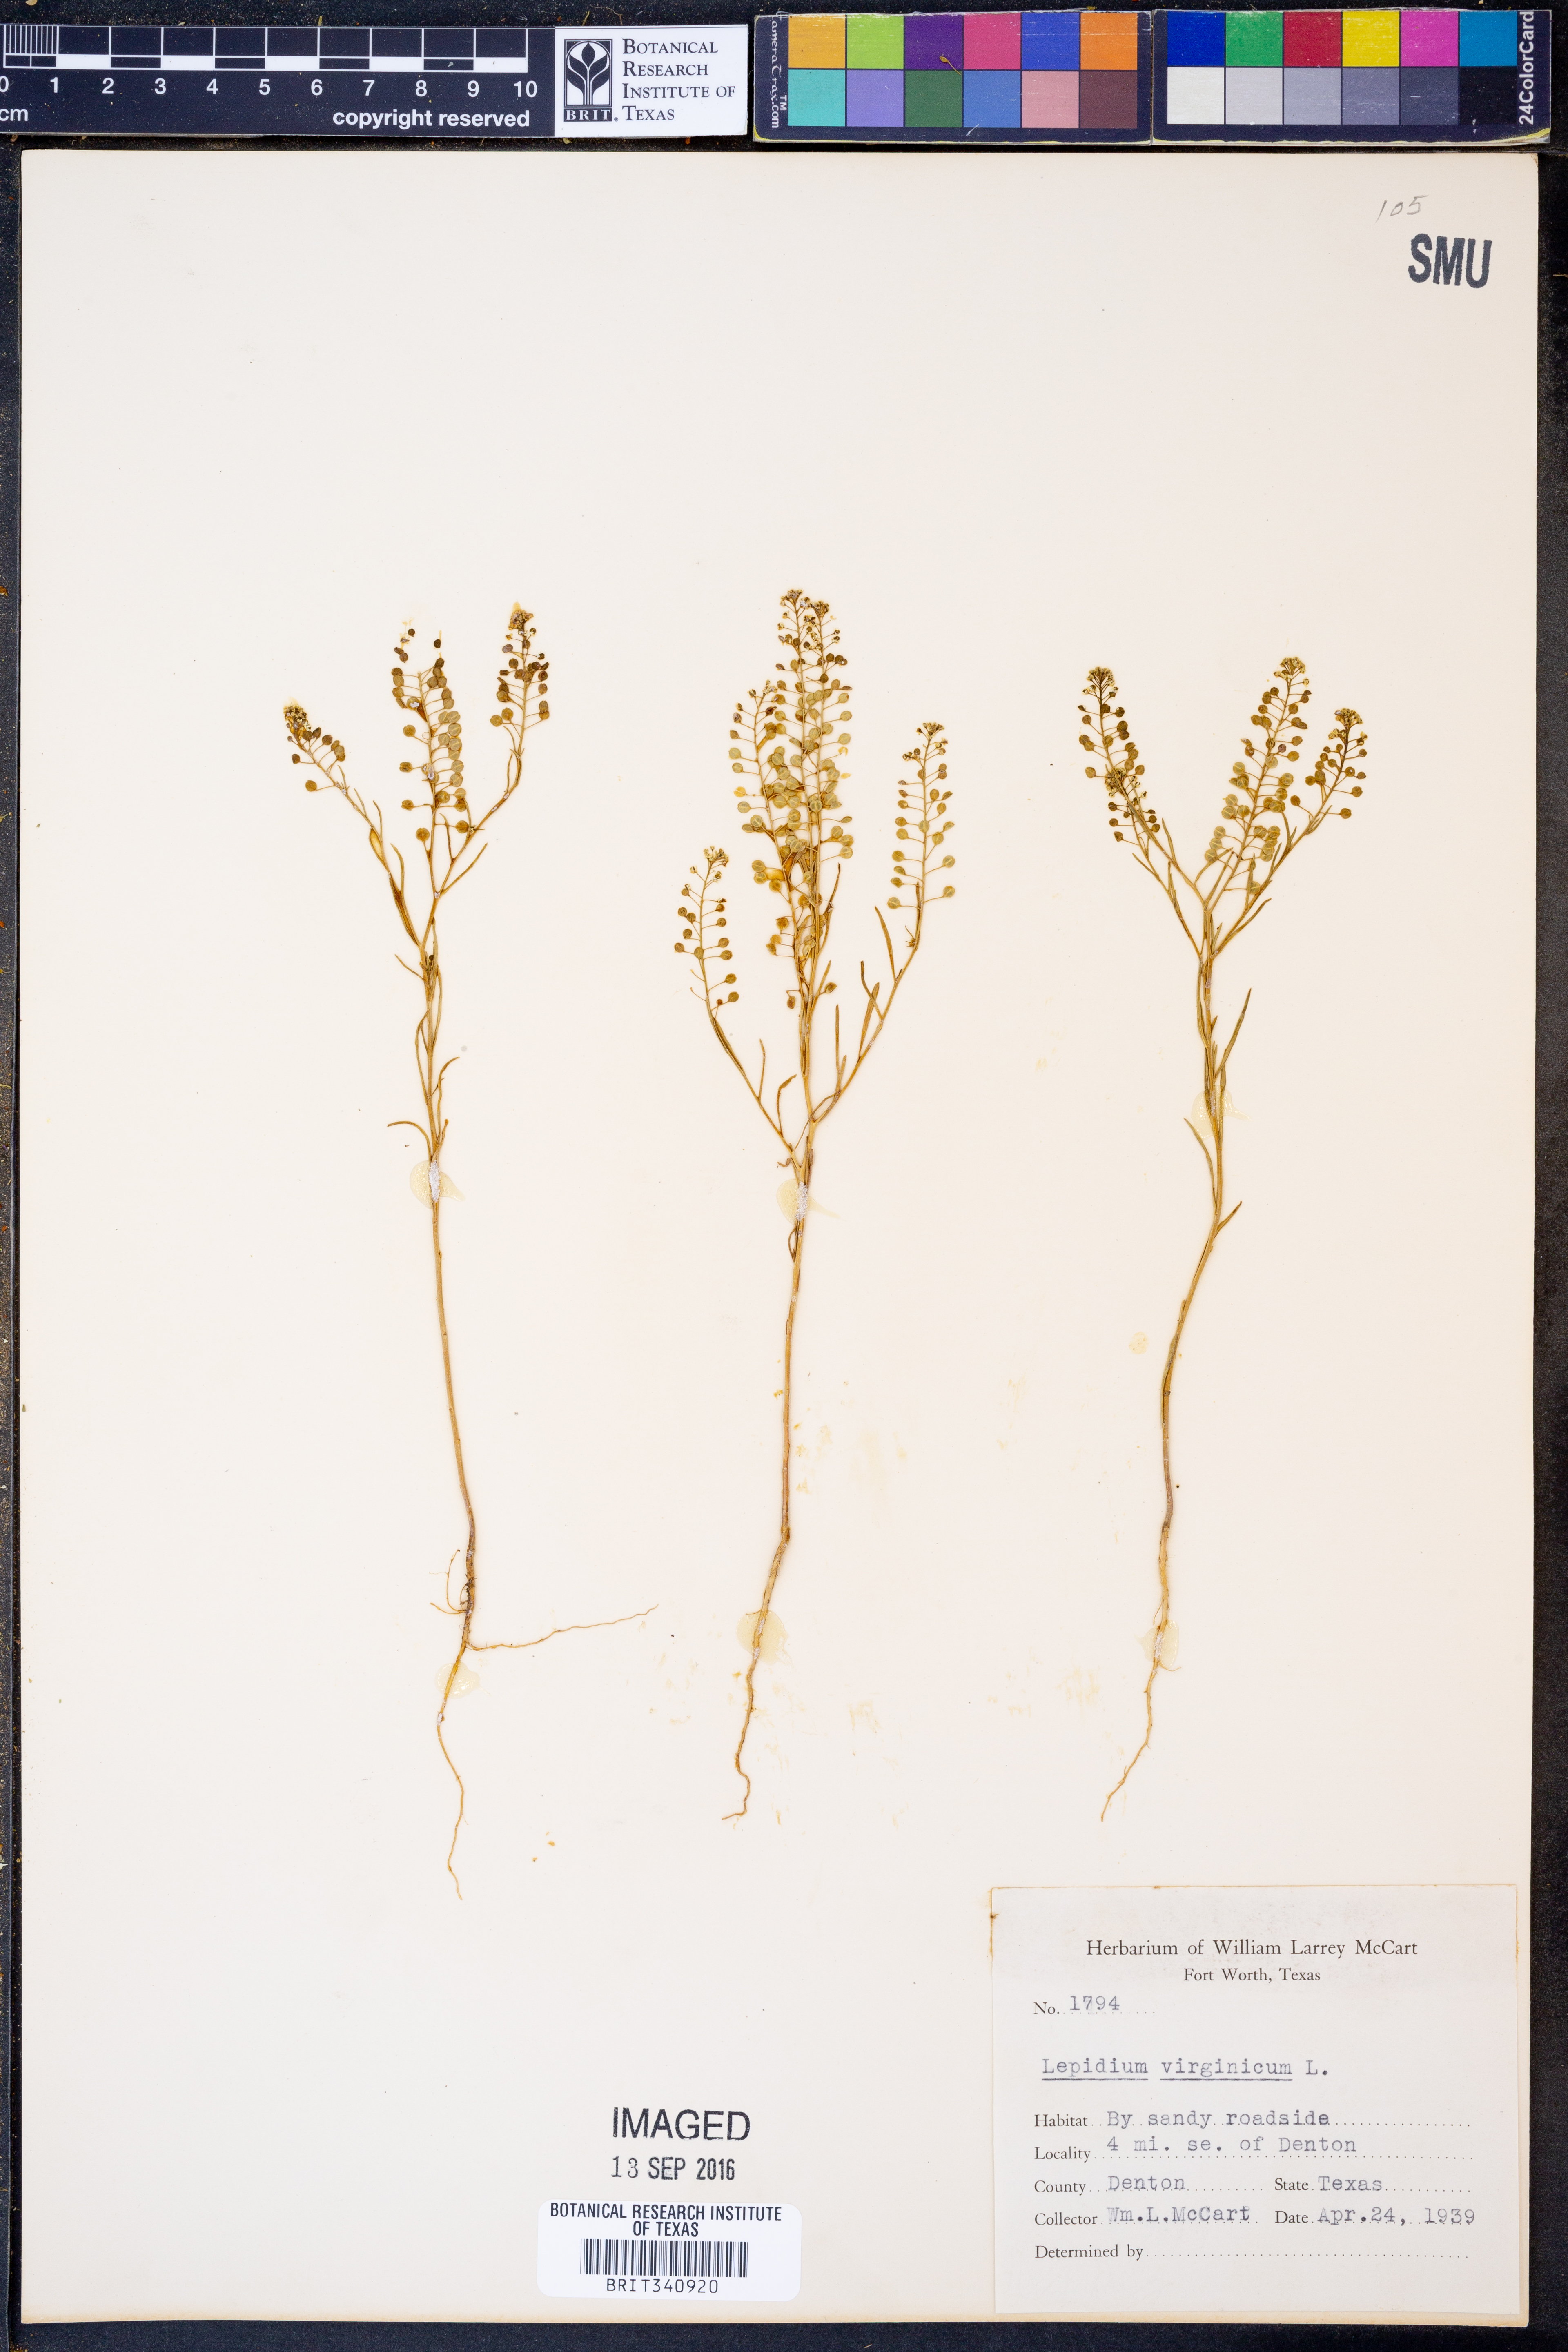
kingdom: Plantae
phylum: Tracheophyta
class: Magnoliopsida
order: Brassicales
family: Brassicaceae
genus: Lepidium
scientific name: Lepidium virginicum
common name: Least pepperwort
